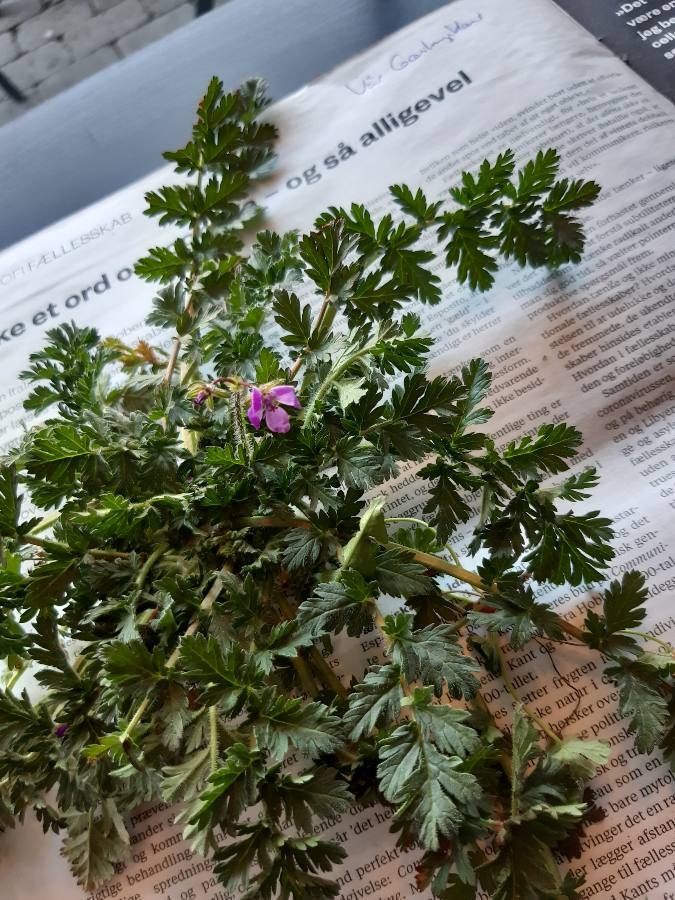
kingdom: Plantae
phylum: Tracheophyta
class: Magnoliopsida
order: Geraniales
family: Geraniaceae
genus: Erodium
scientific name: Erodium cicutarium
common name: Hejrenæb
